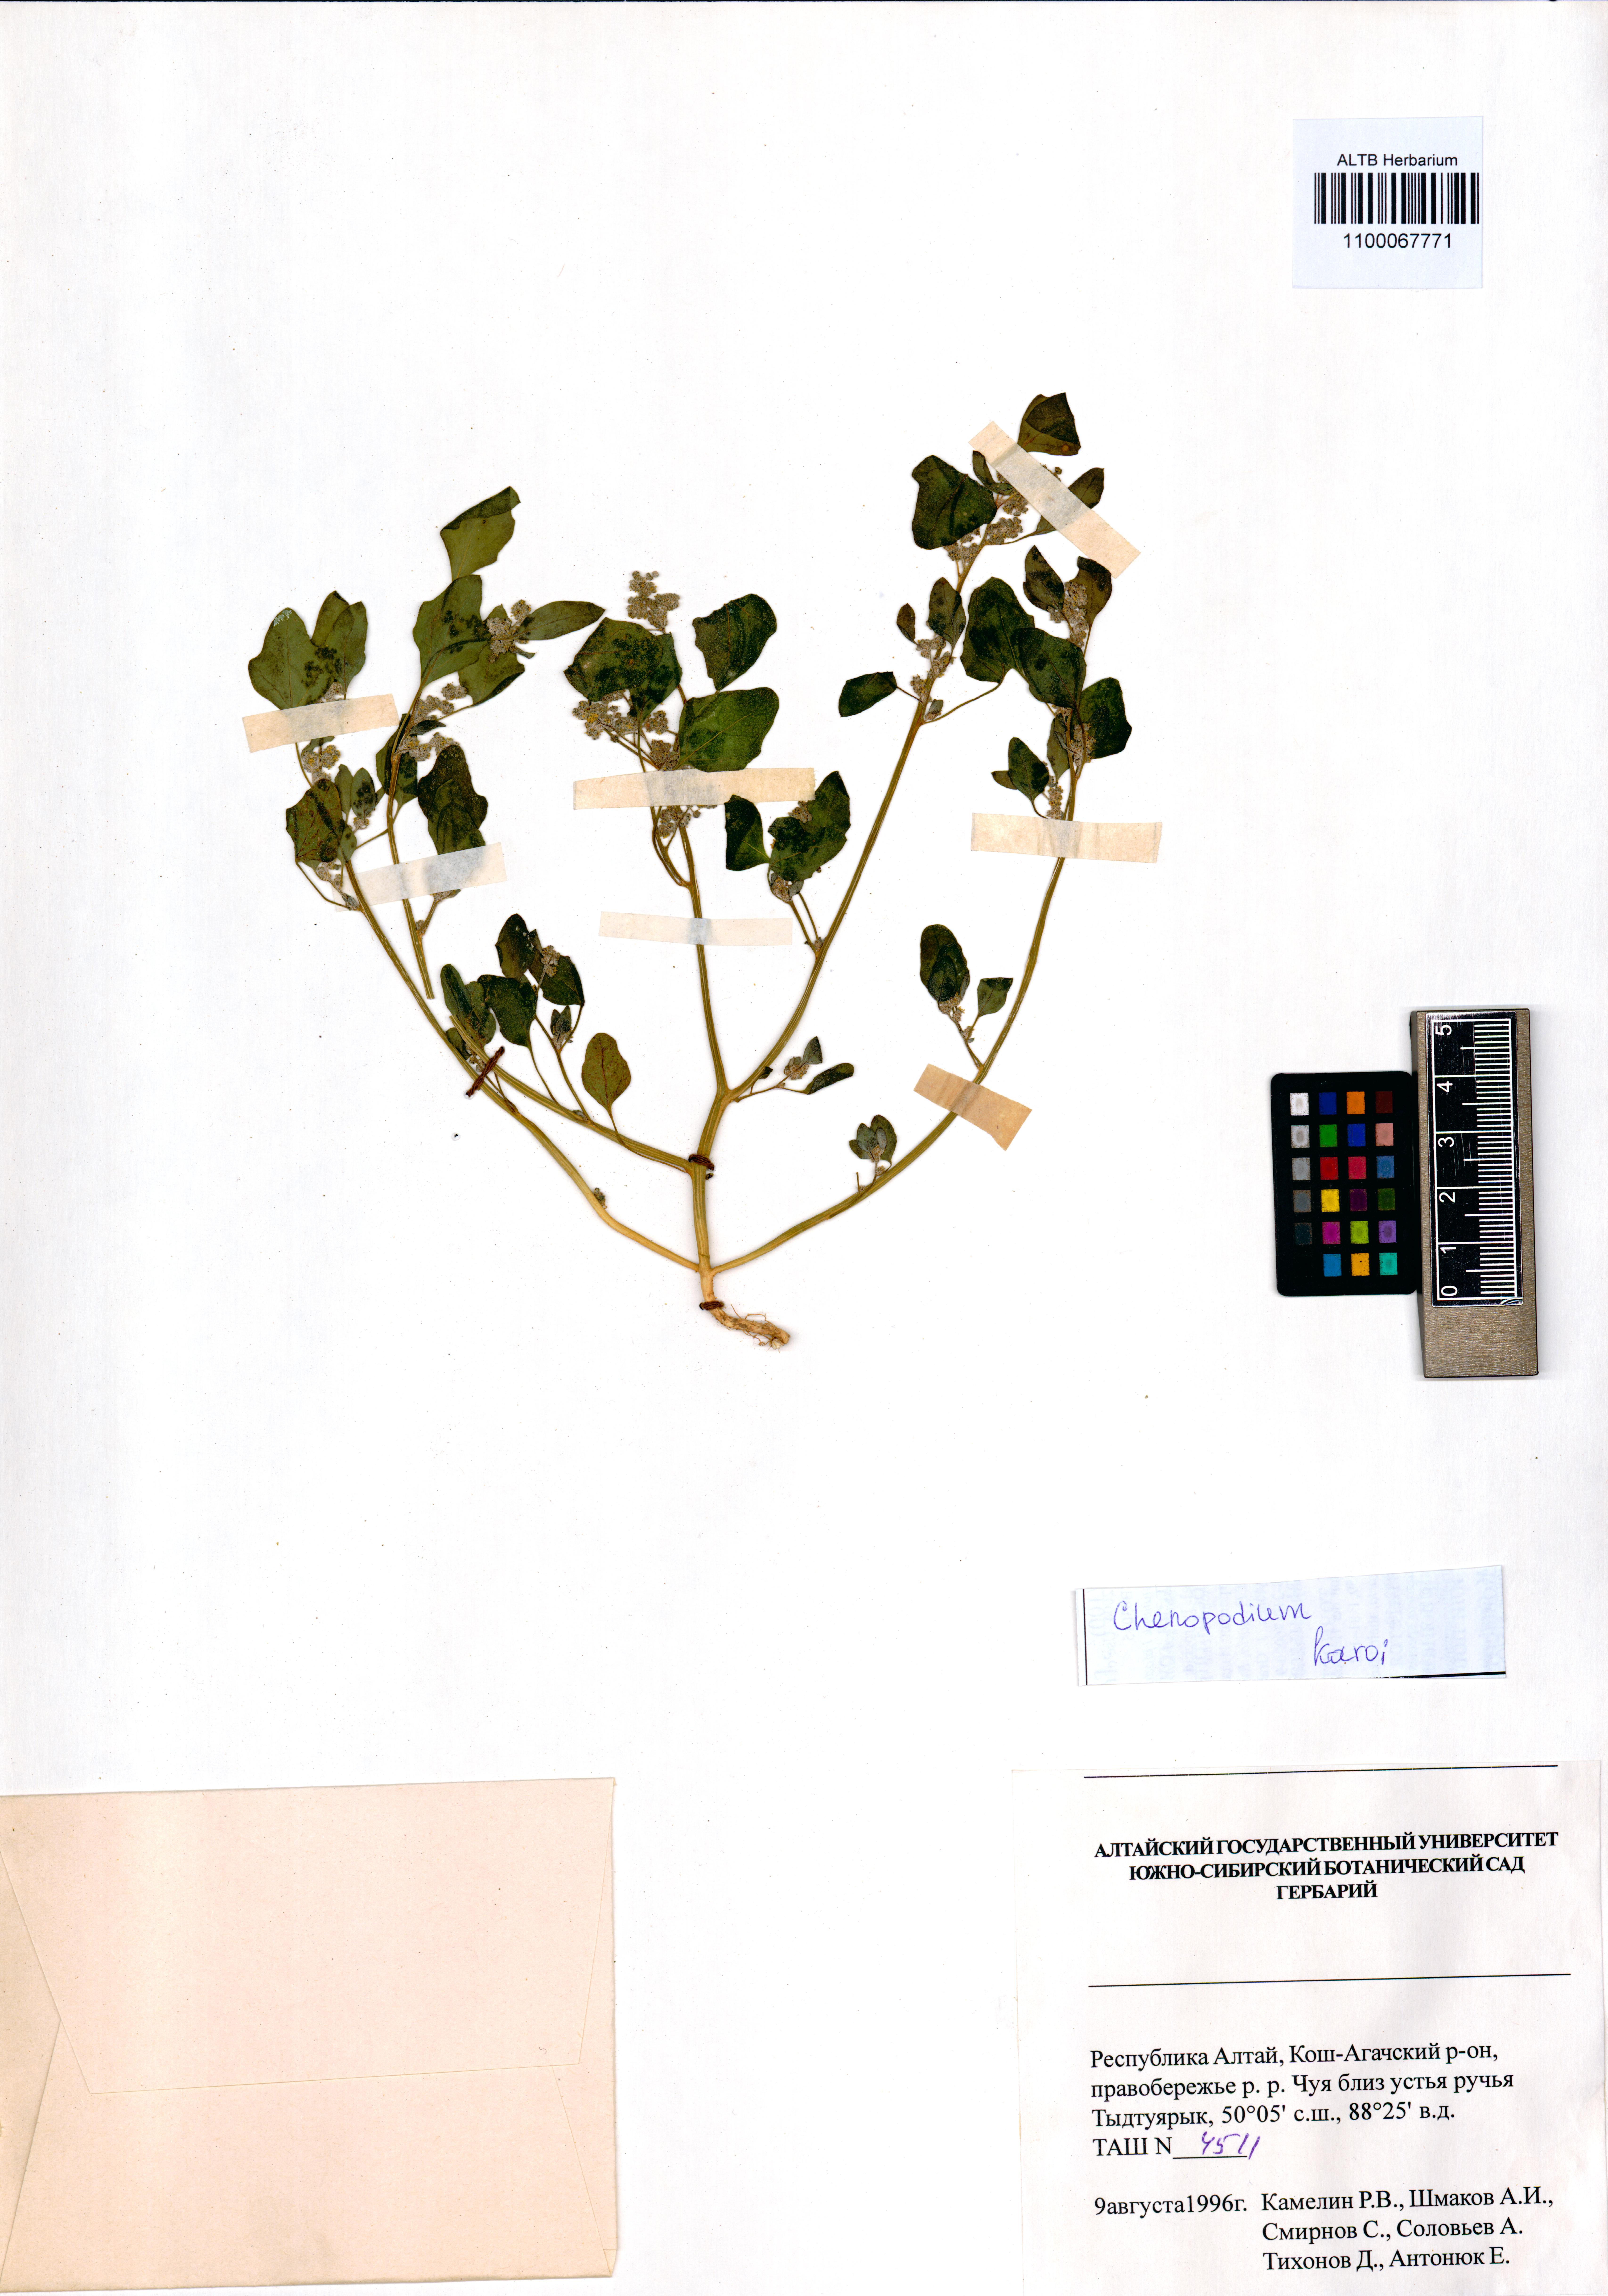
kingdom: Plantae
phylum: Tracheophyta
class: Magnoliopsida
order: Caryophyllales
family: Amaranthaceae
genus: Chenopodium
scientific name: Chenopodium karoi
